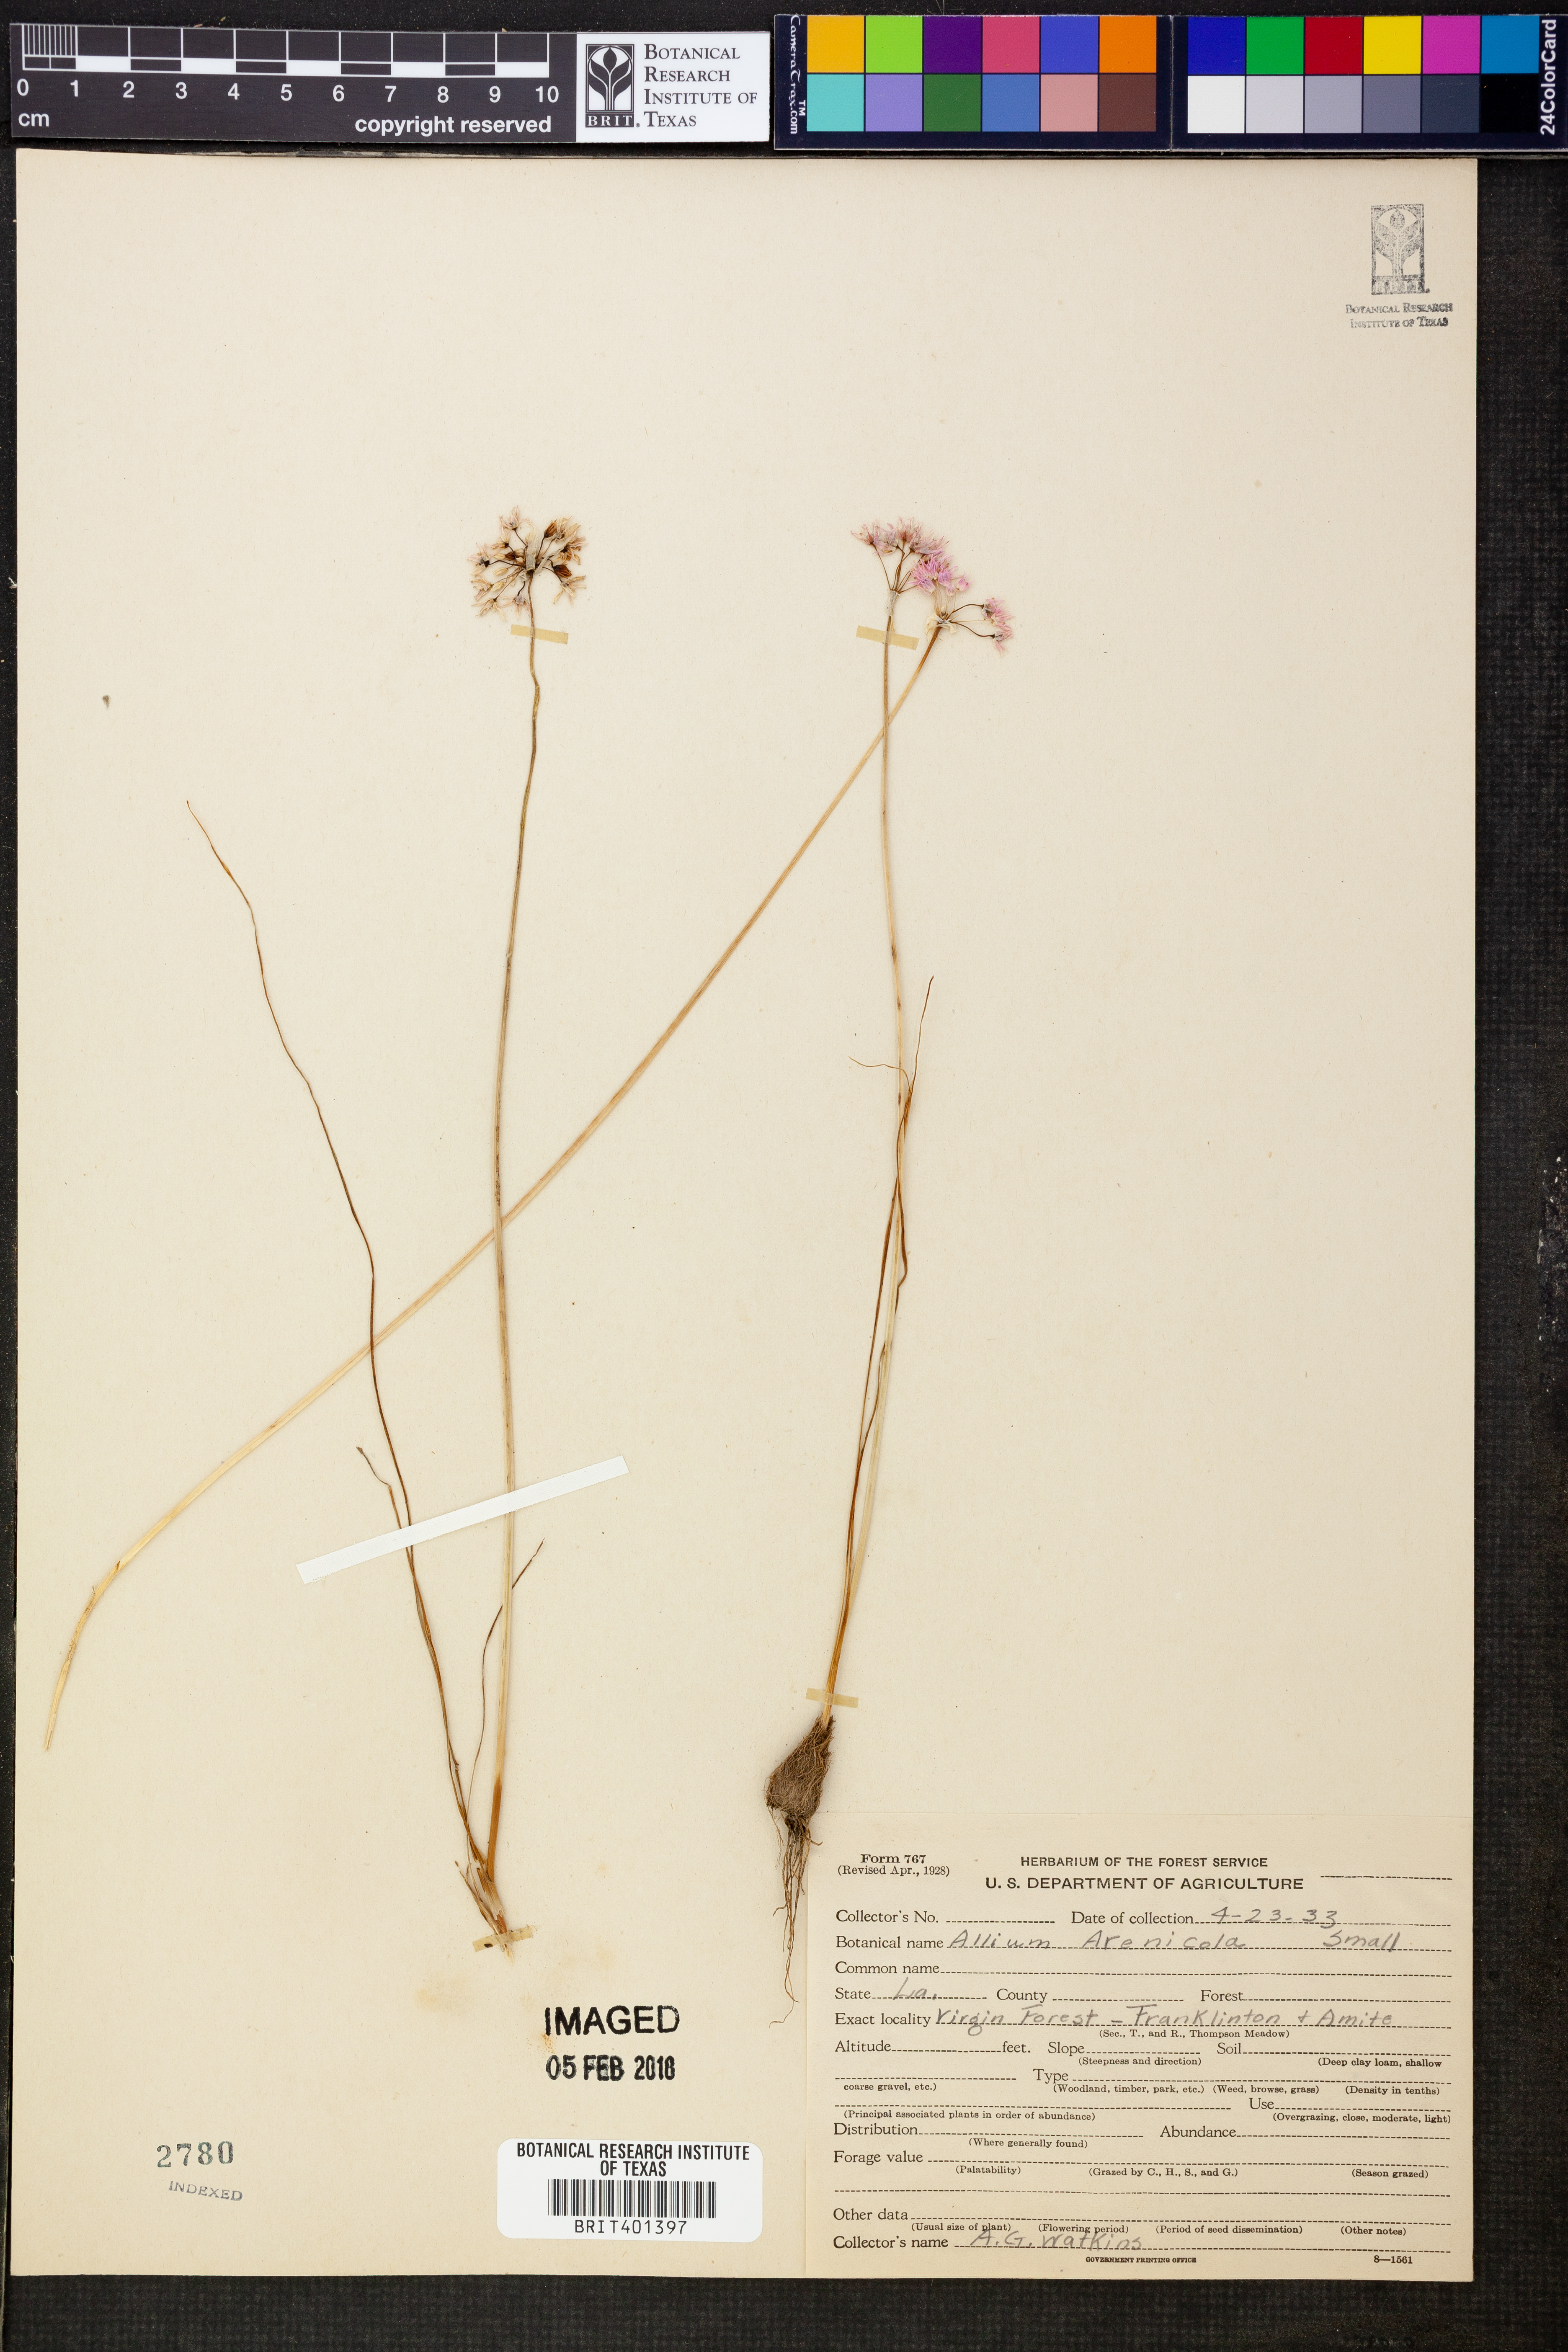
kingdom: Plantae
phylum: Tracheophyta
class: Liliopsida
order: Asparagales
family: Amaryllidaceae
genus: Allium
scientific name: Allium geyeri
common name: Geyer's onion
